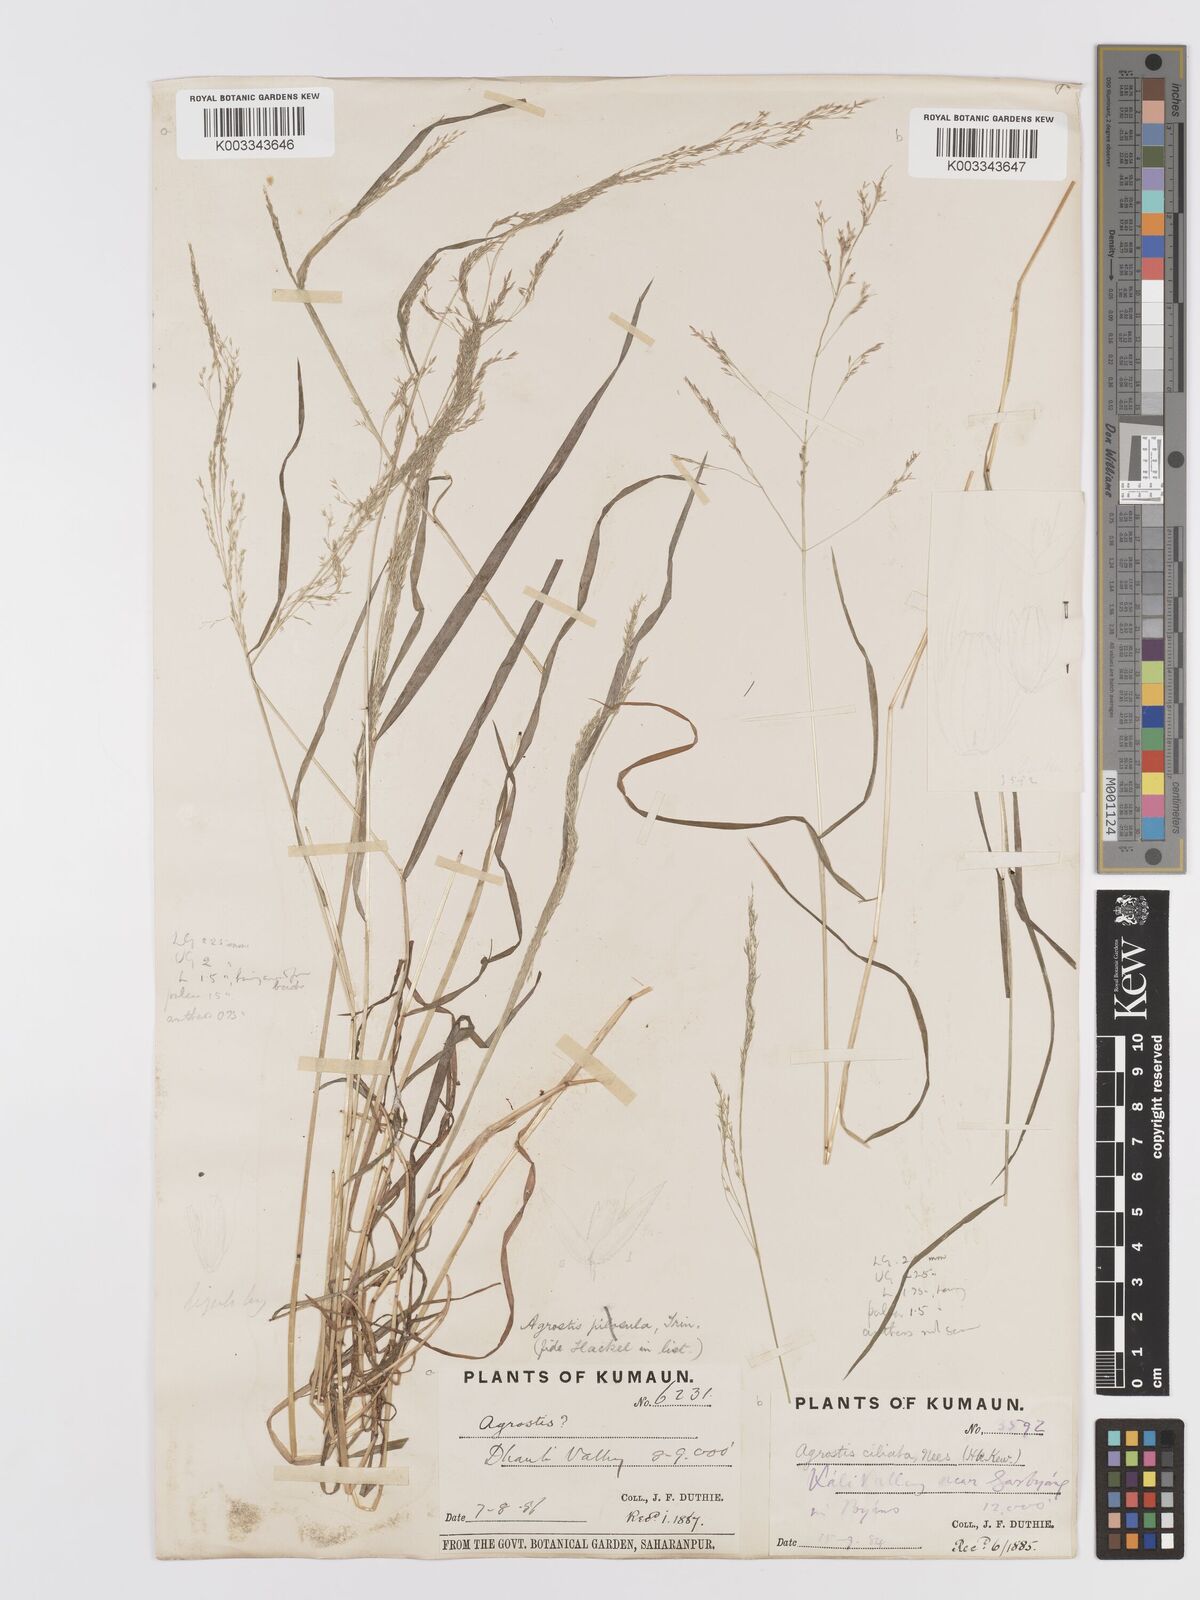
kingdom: Plantae
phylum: Tracheophyta
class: Liliopsida
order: Poales
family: Poaceae
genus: Agrostis
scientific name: Agrostis munroana
